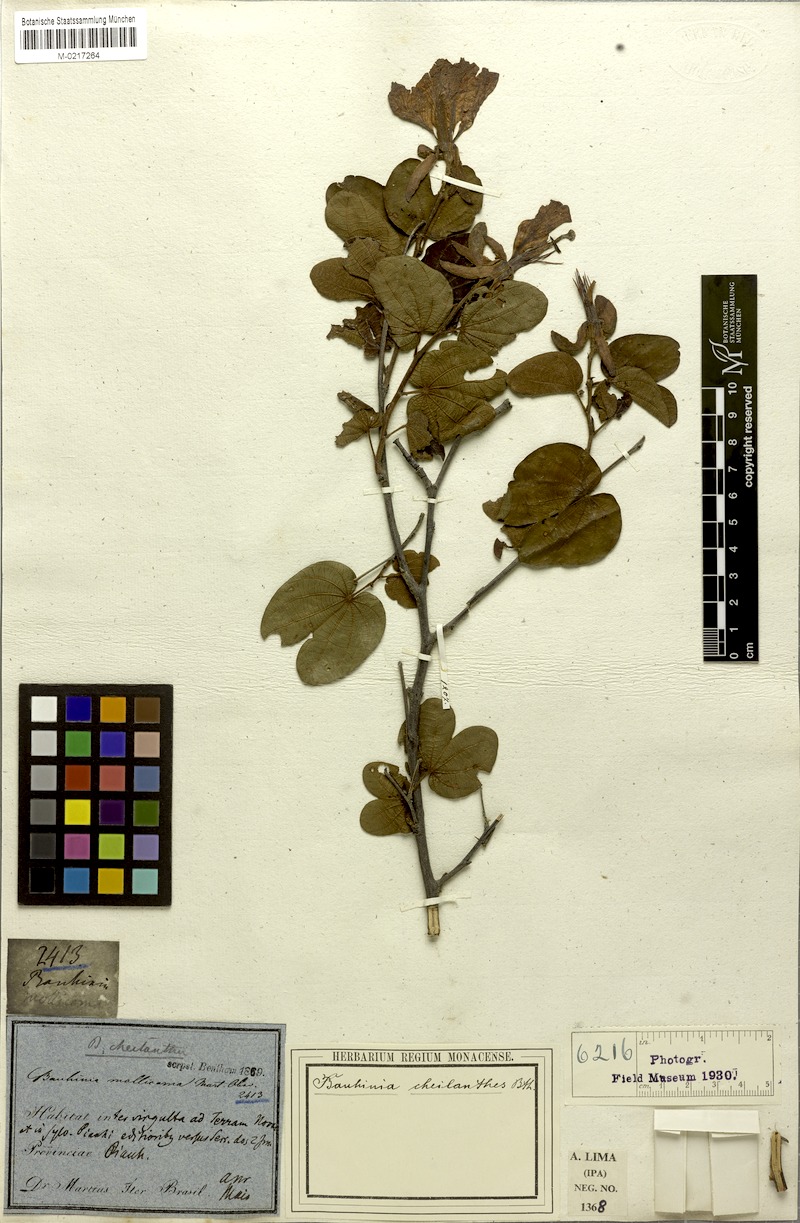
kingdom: Plantae
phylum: Tracheophyta
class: Magnoliopsida
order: Fabales
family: Fabaceae
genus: Bauhinia
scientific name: Bauhinia cheilantha
